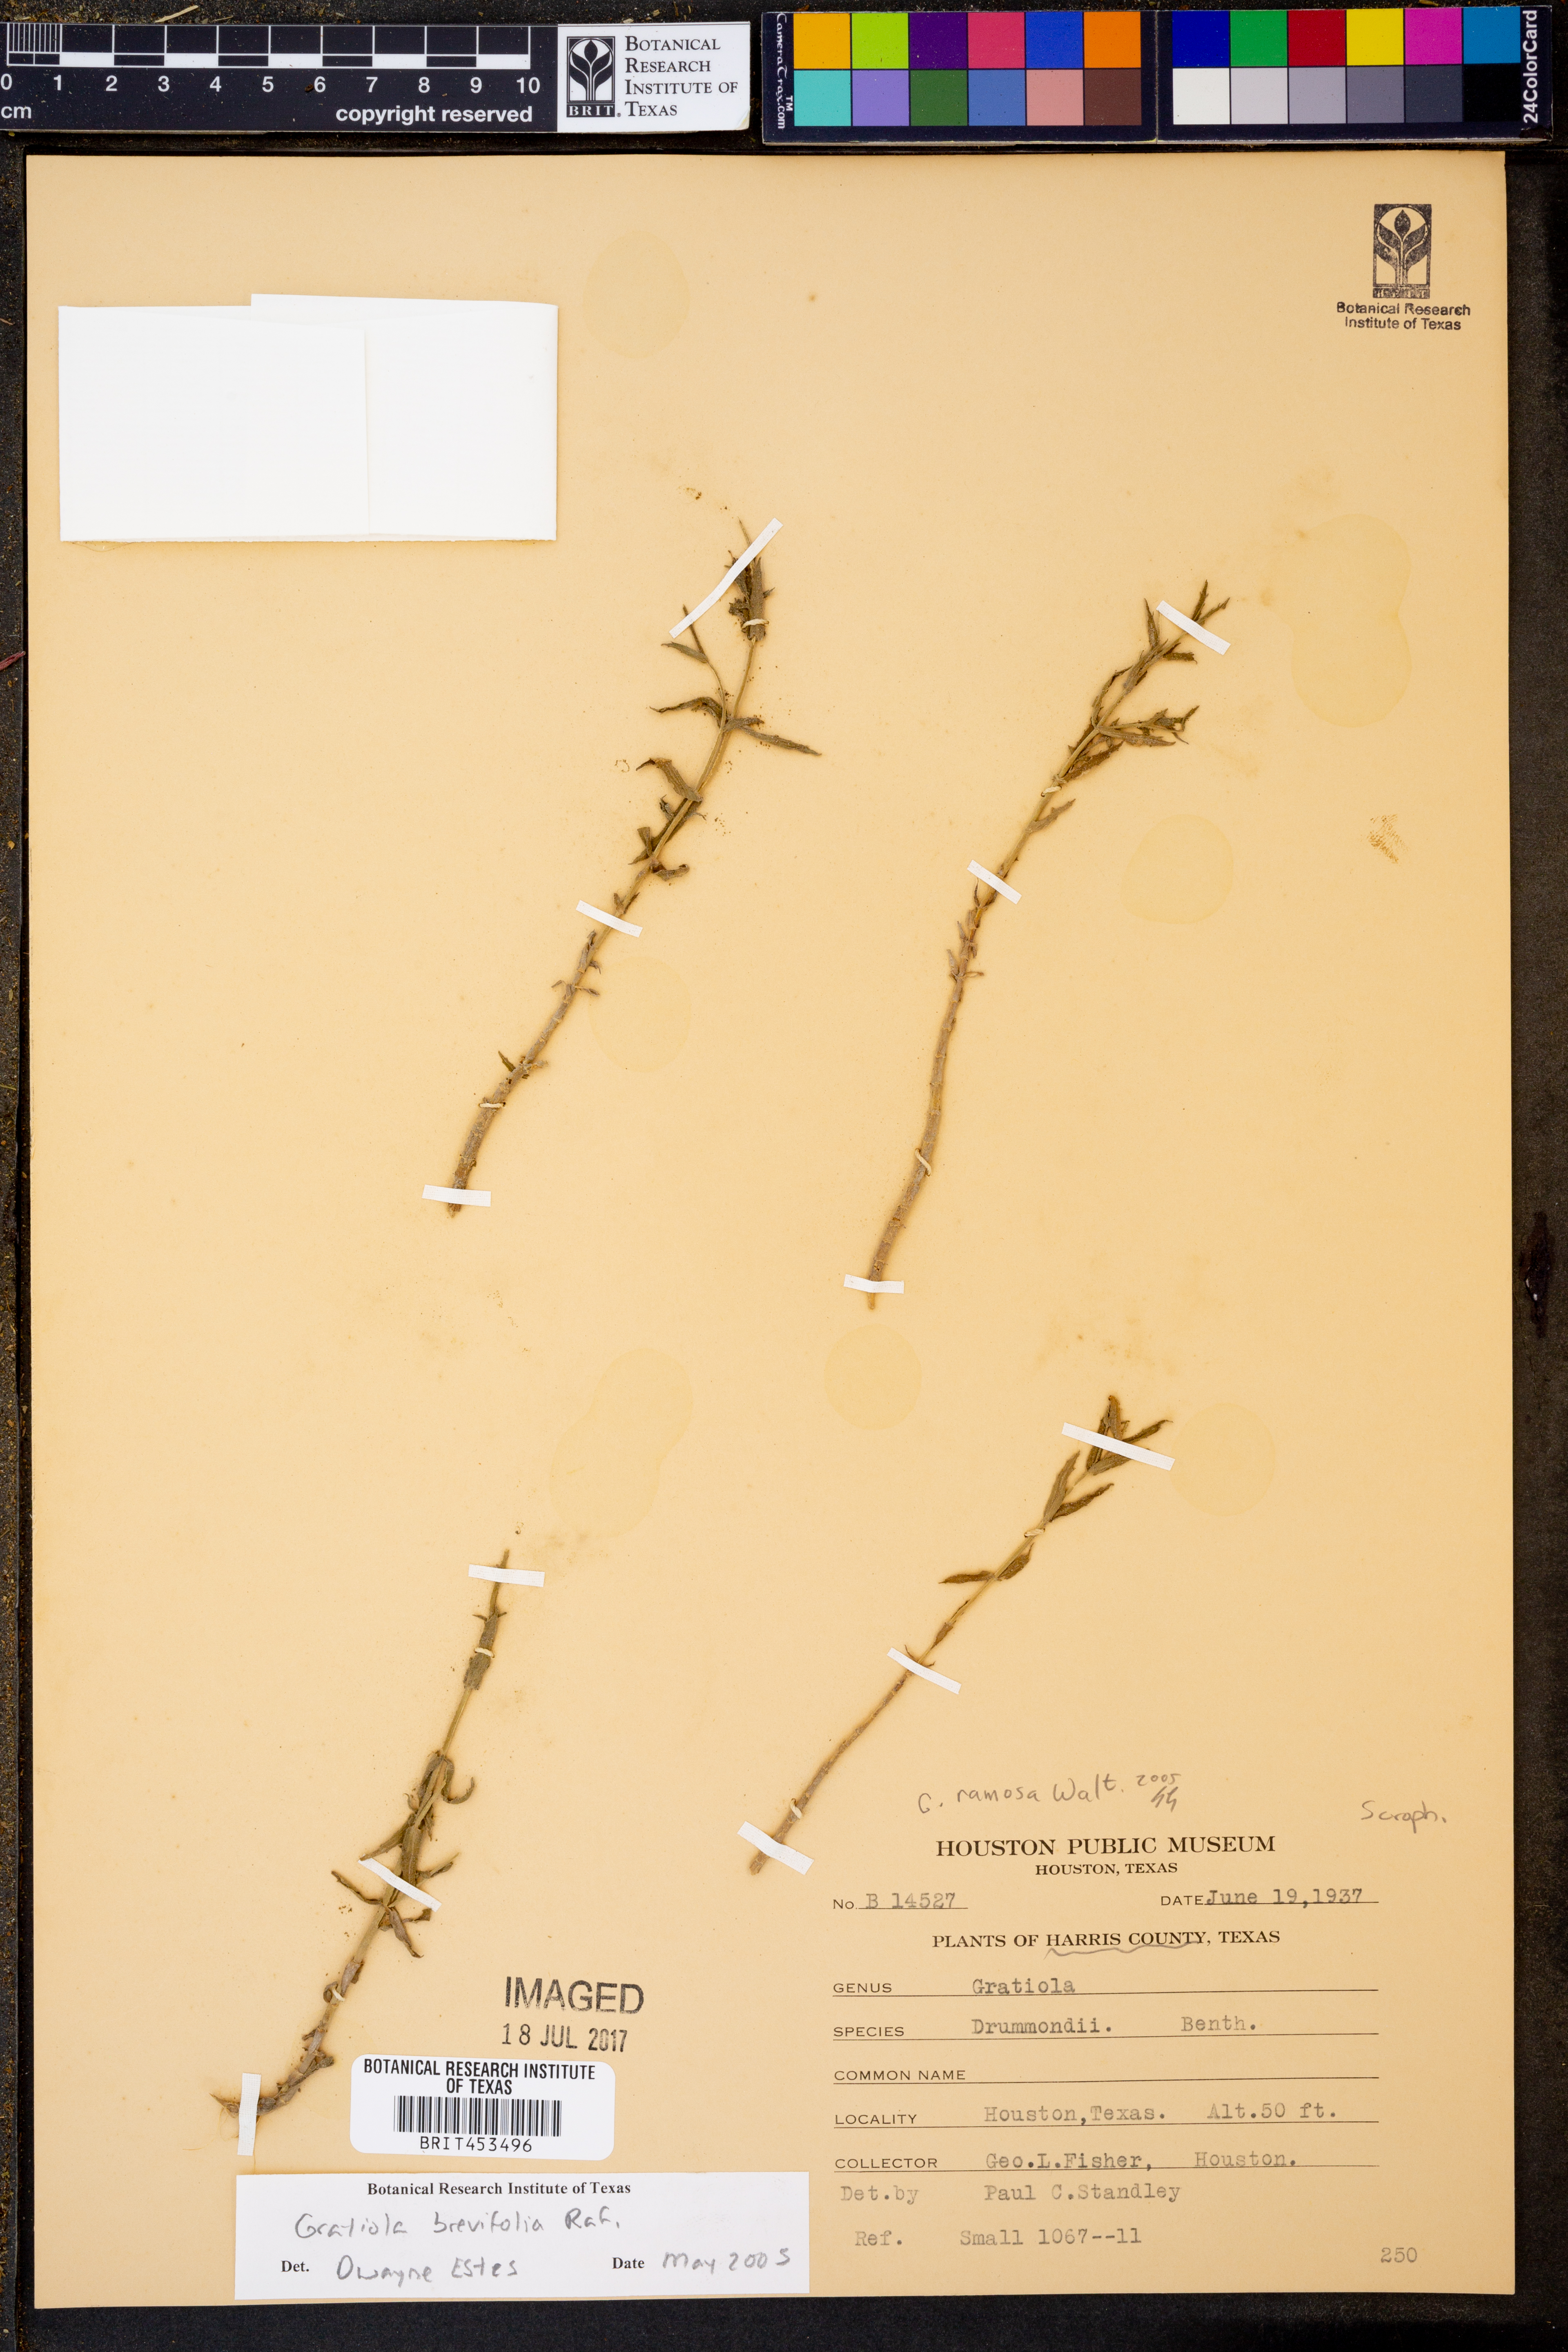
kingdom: Plantae
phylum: Tracheophyta
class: Magnoliopsida
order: Lamiales
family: Plantaginaceae
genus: Gratiola
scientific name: Gratiola brevifolia
